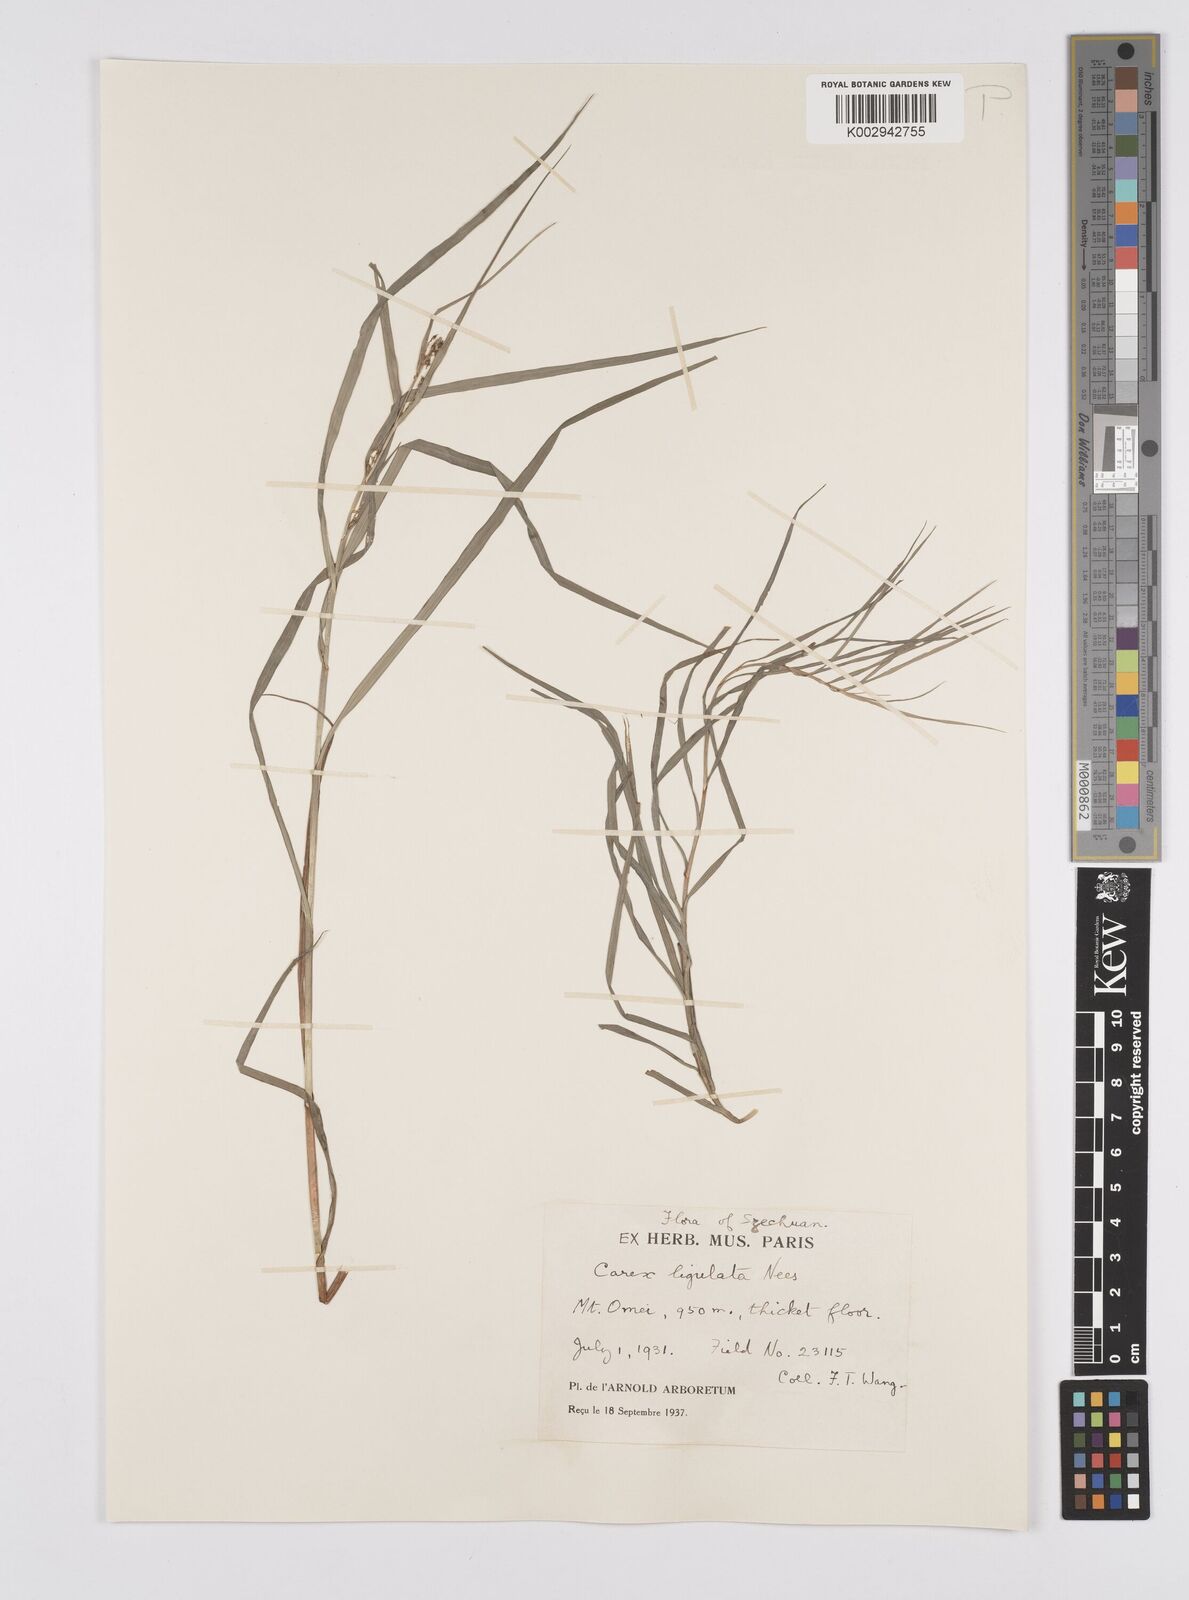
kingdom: Plantae
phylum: Tracheophyta
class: Liliopsida
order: Poales
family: Cyperaceae
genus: Carex
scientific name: Carex maubertiana
